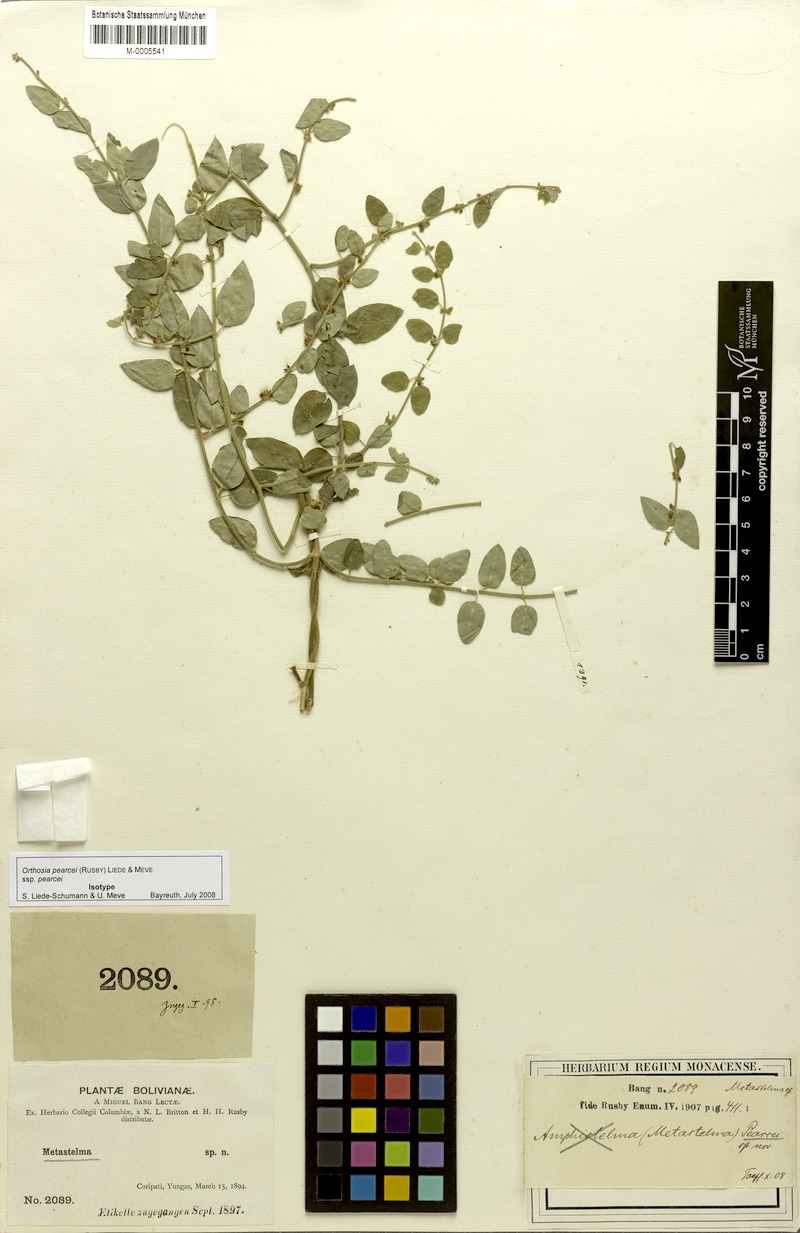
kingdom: Plantae
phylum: Tracheophyta
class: Magnoliopsida
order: Gentianales
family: Apocynaceae
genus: Orthosia
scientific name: Orthosia pearcei
